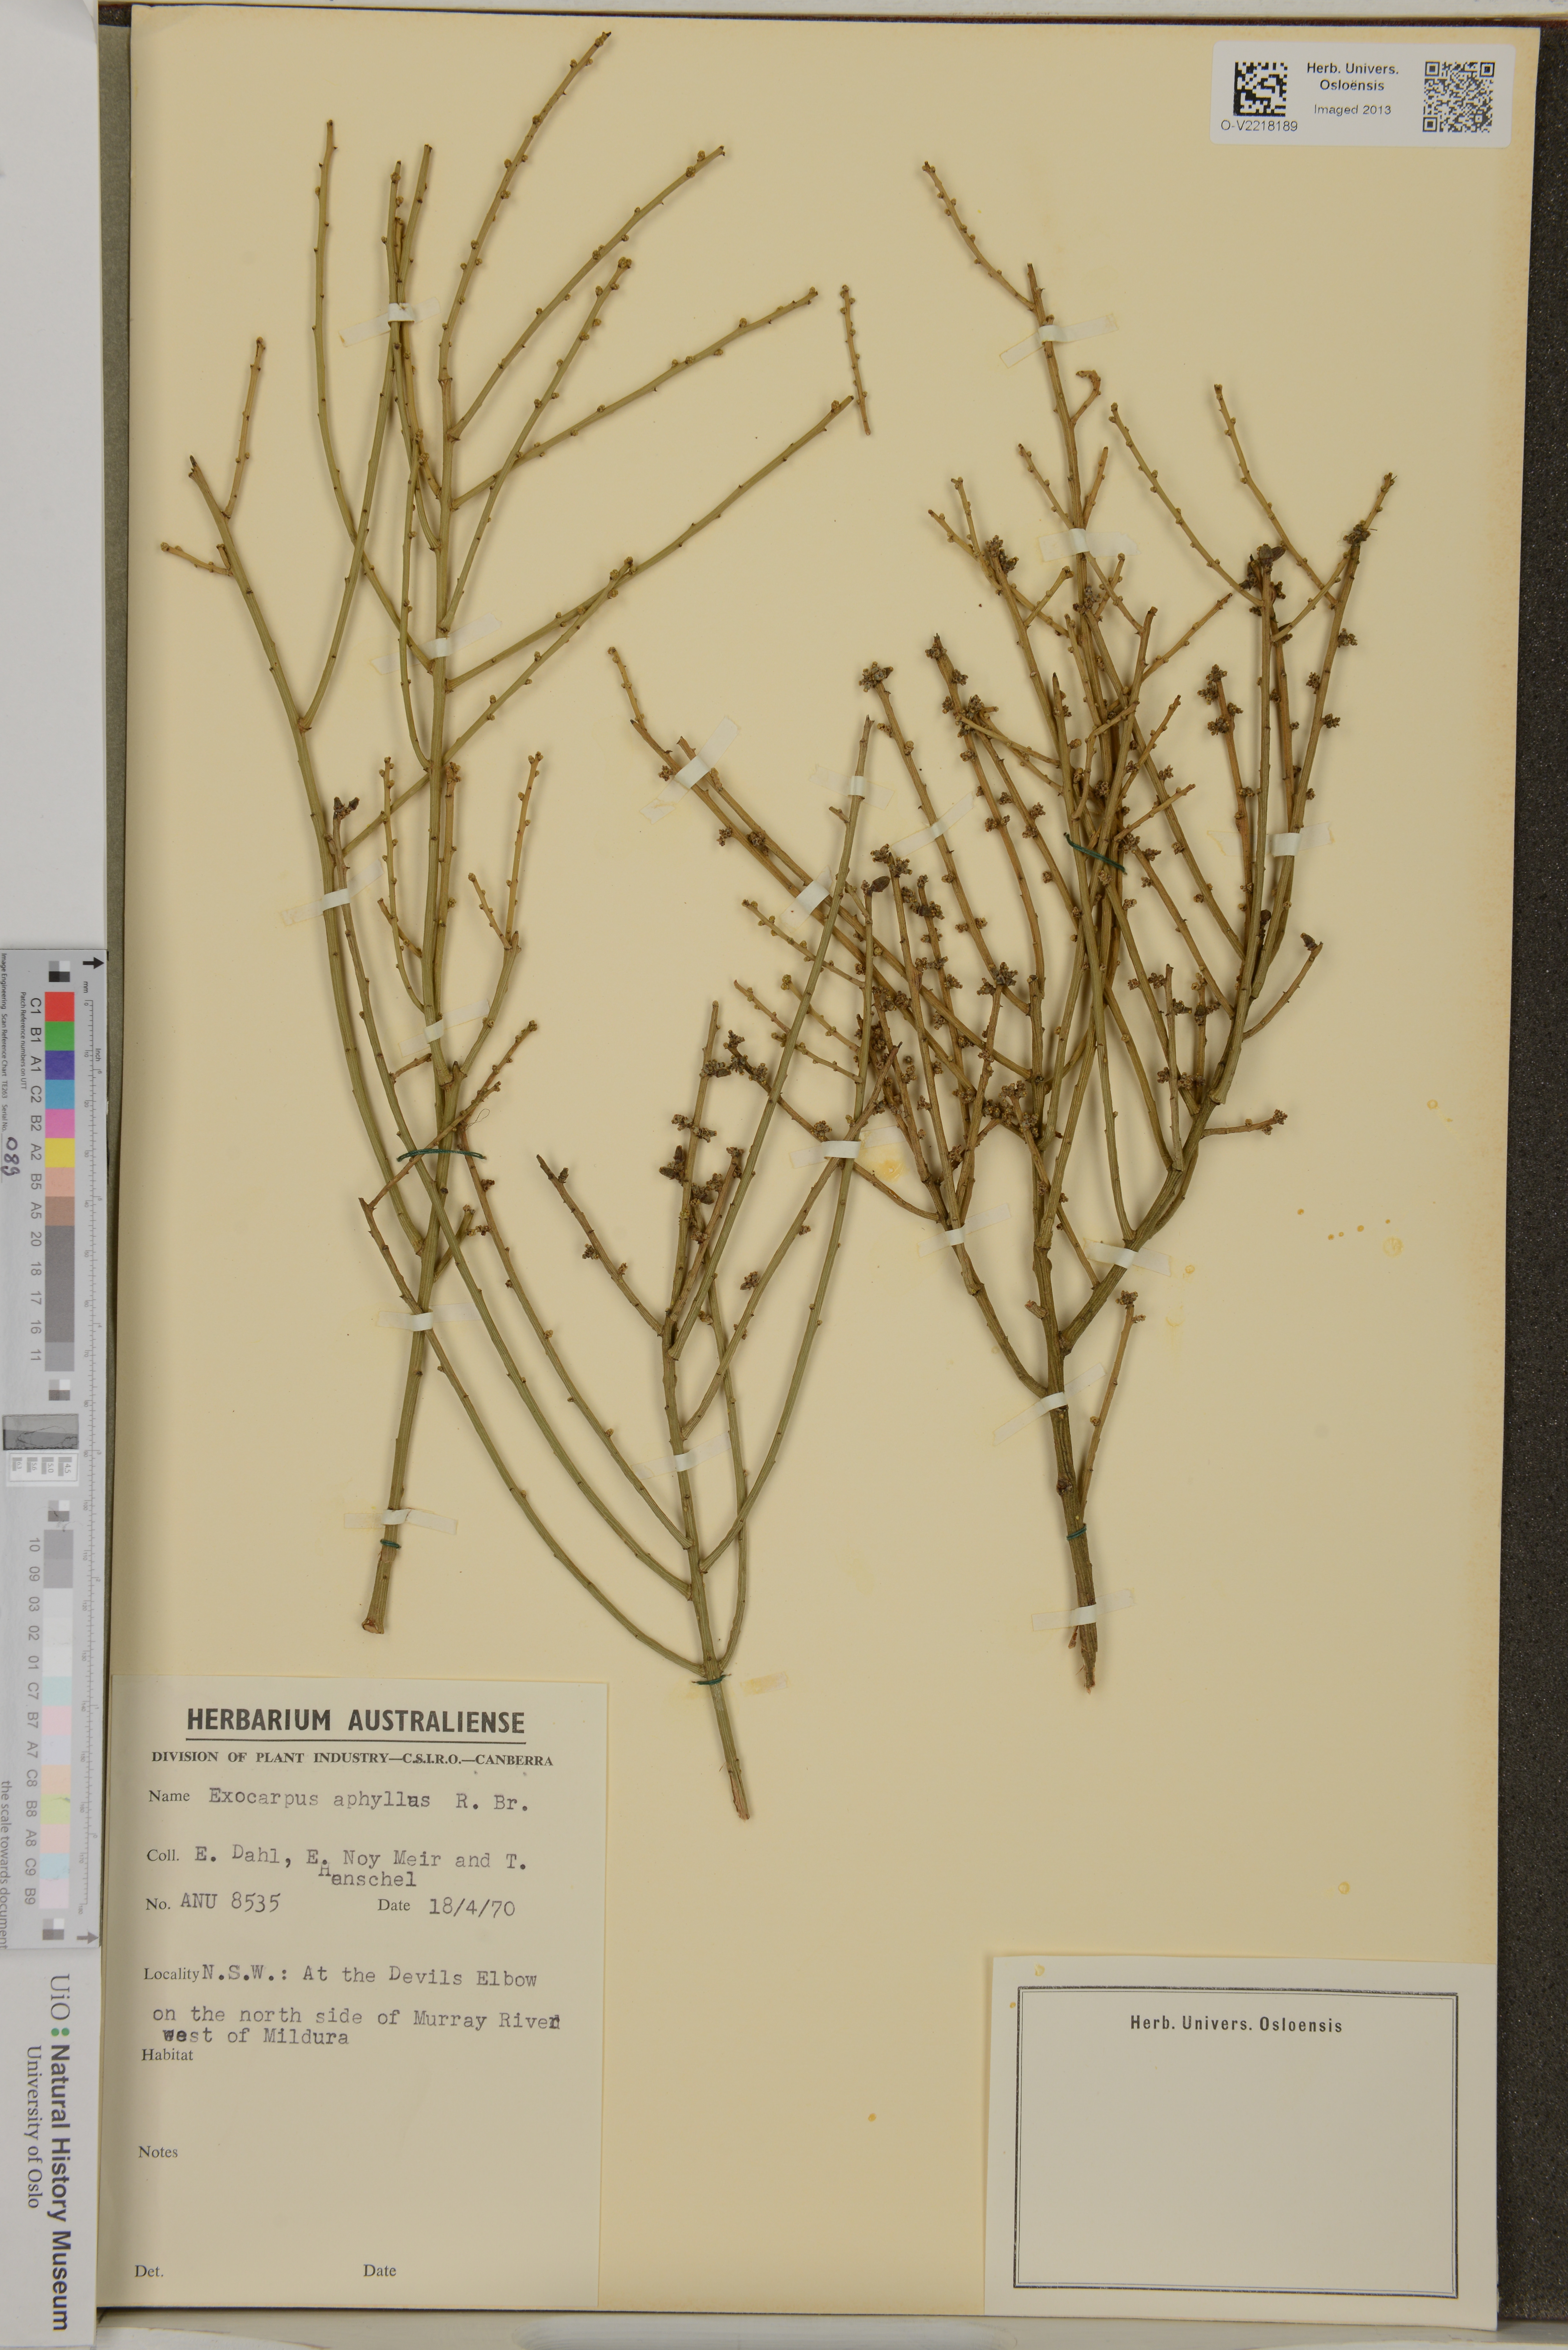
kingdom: Plantae
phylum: Tracheophyta
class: Magnoliopsida
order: Santalales
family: Santalaceae
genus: Exocarpos
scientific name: Exocarpos aphyllus
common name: Leafless ballart
